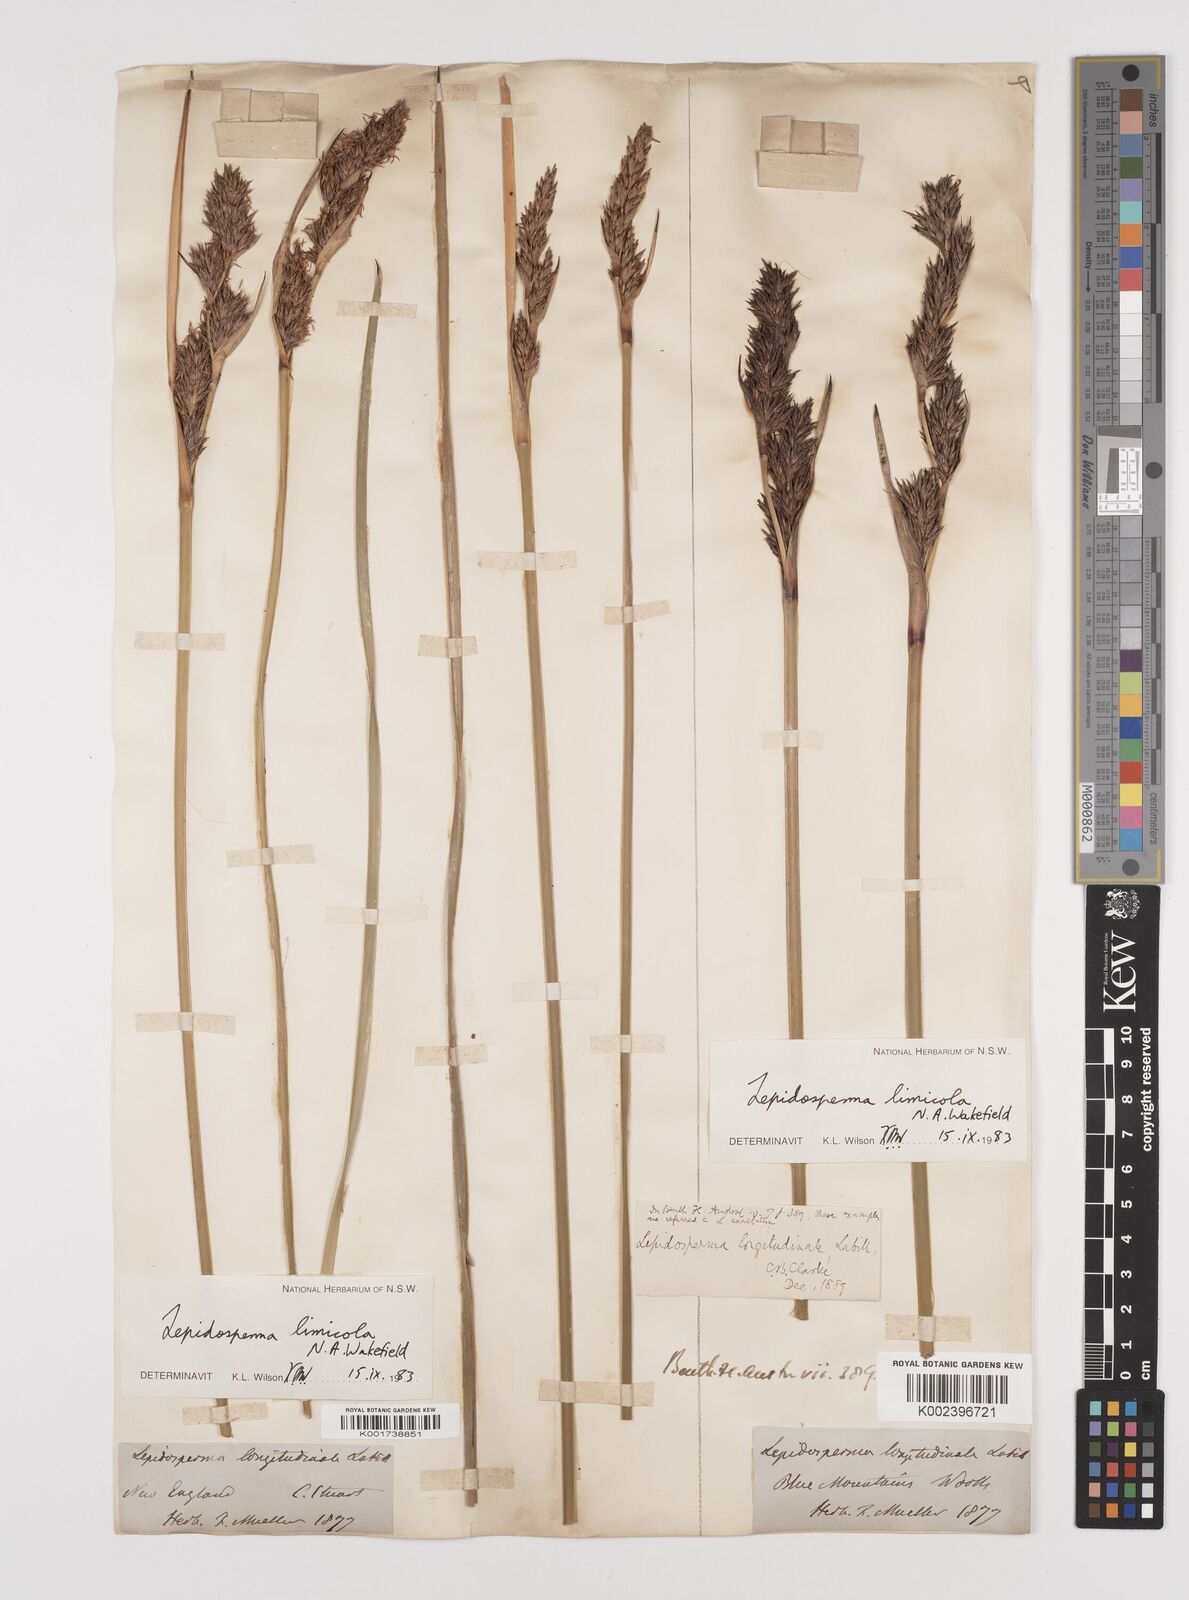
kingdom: Plantae
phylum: Tracheophyta
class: Liliopsida
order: Poales
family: Cyperaceae
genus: Lepidosperma
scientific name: Lepidosperma limicola
